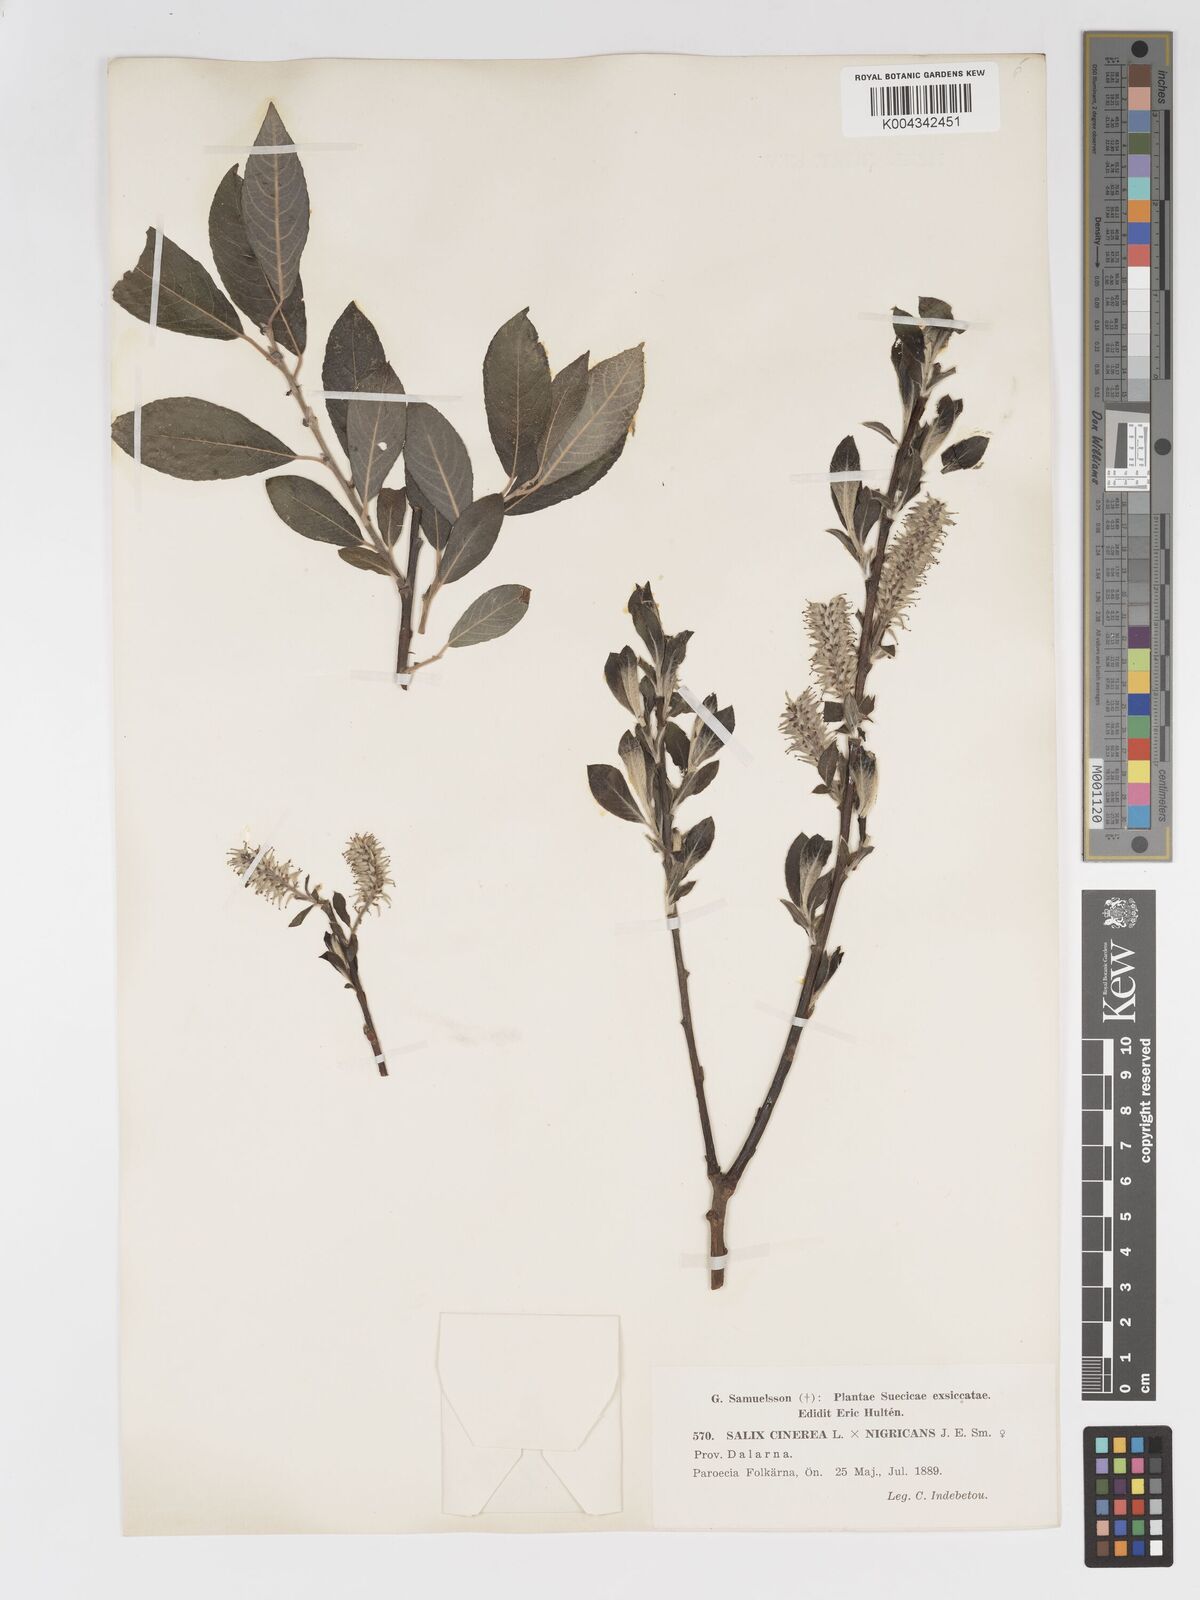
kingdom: Plantae
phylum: Tracheophyta
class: Magnoliopsida
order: Malpighiales
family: Salicaceae
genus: Salix
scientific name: Salix
